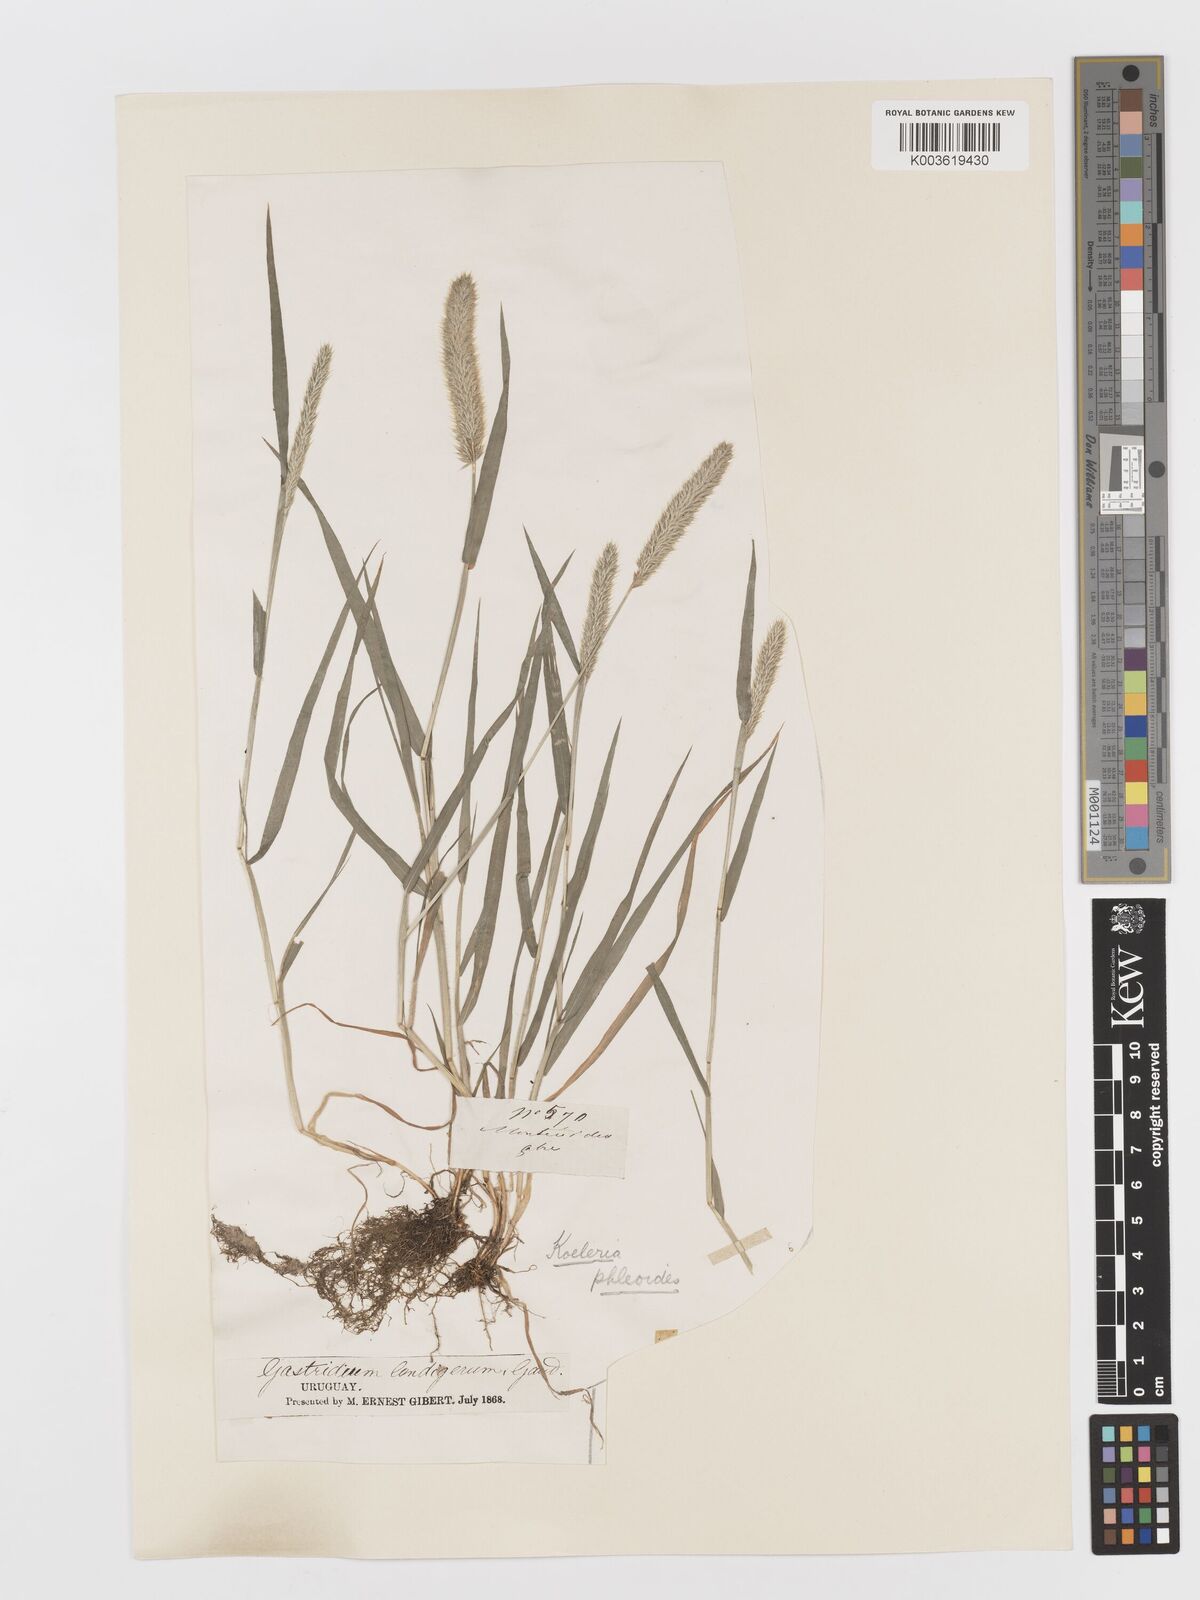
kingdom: Plantae
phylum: Tracheophyta
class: Liliopsida
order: Poales
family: Poaceae
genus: Rostraria
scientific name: Rostraria cristata
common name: Mediterranean hair-grass
